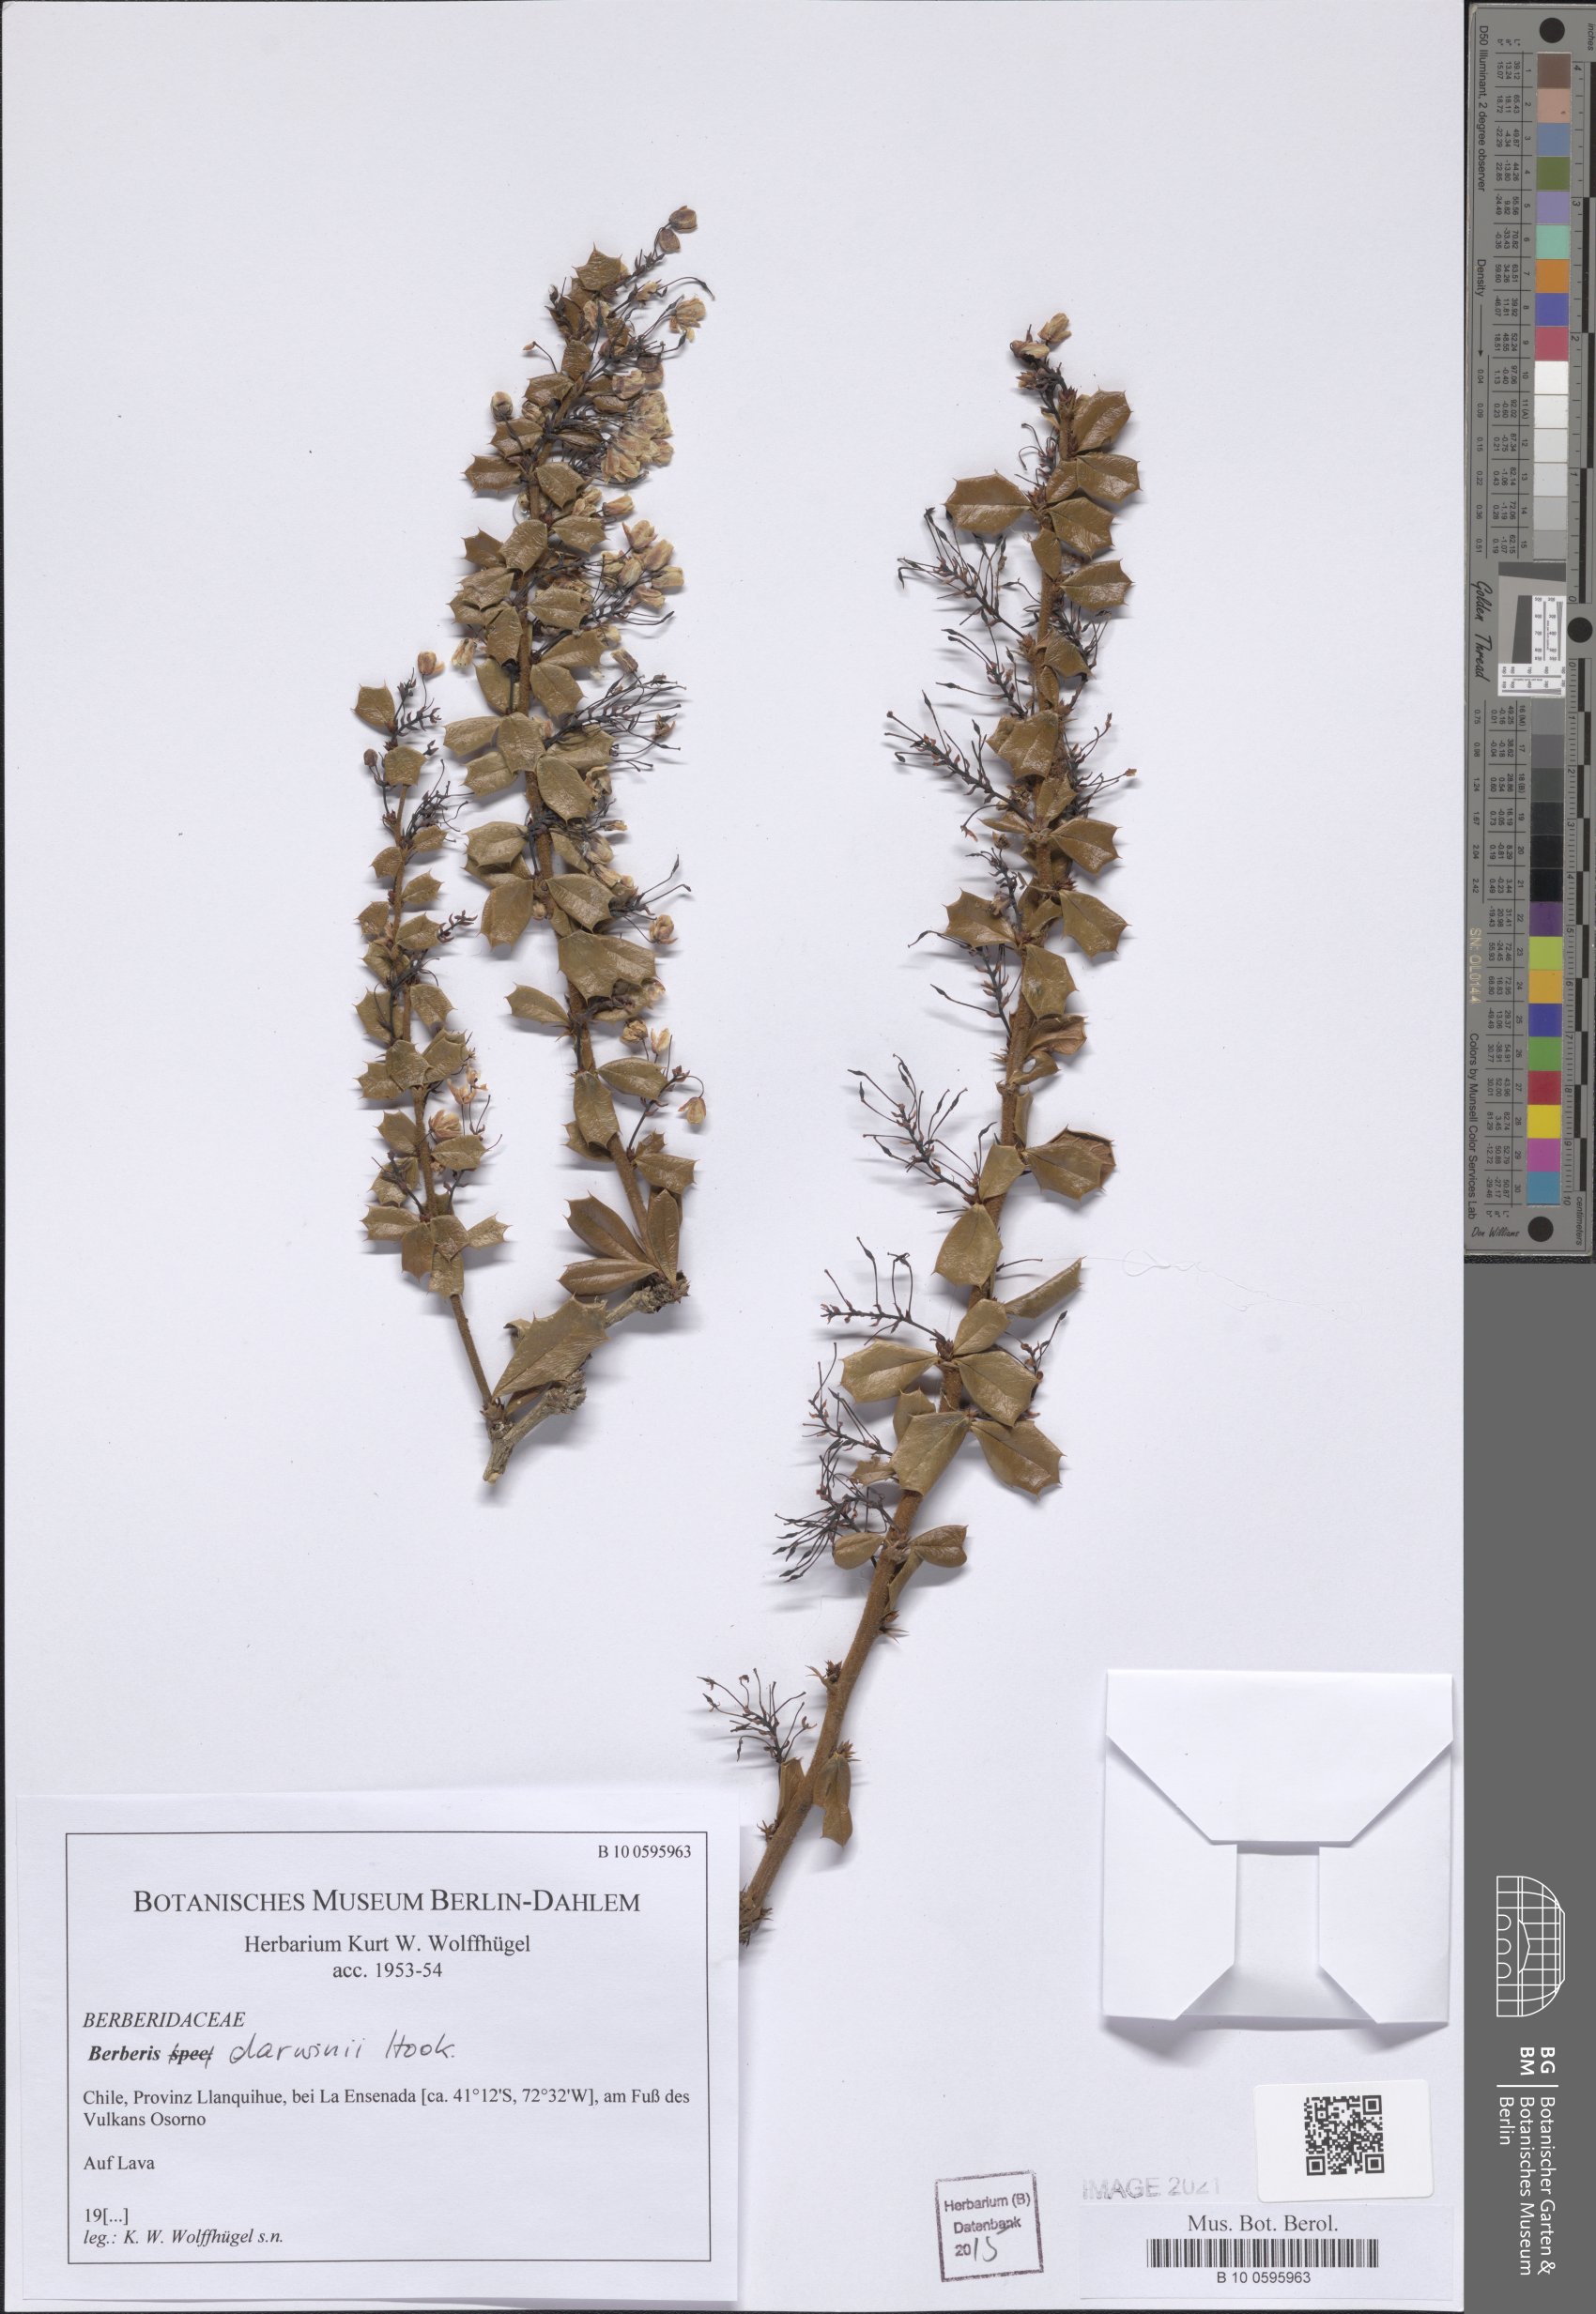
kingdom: Plantae
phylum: Tracheophyta
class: Magnoliopsida
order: Ranunculales
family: Berberidaceae
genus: Berberis
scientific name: Berberis darwinii
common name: Darwin's barberry
